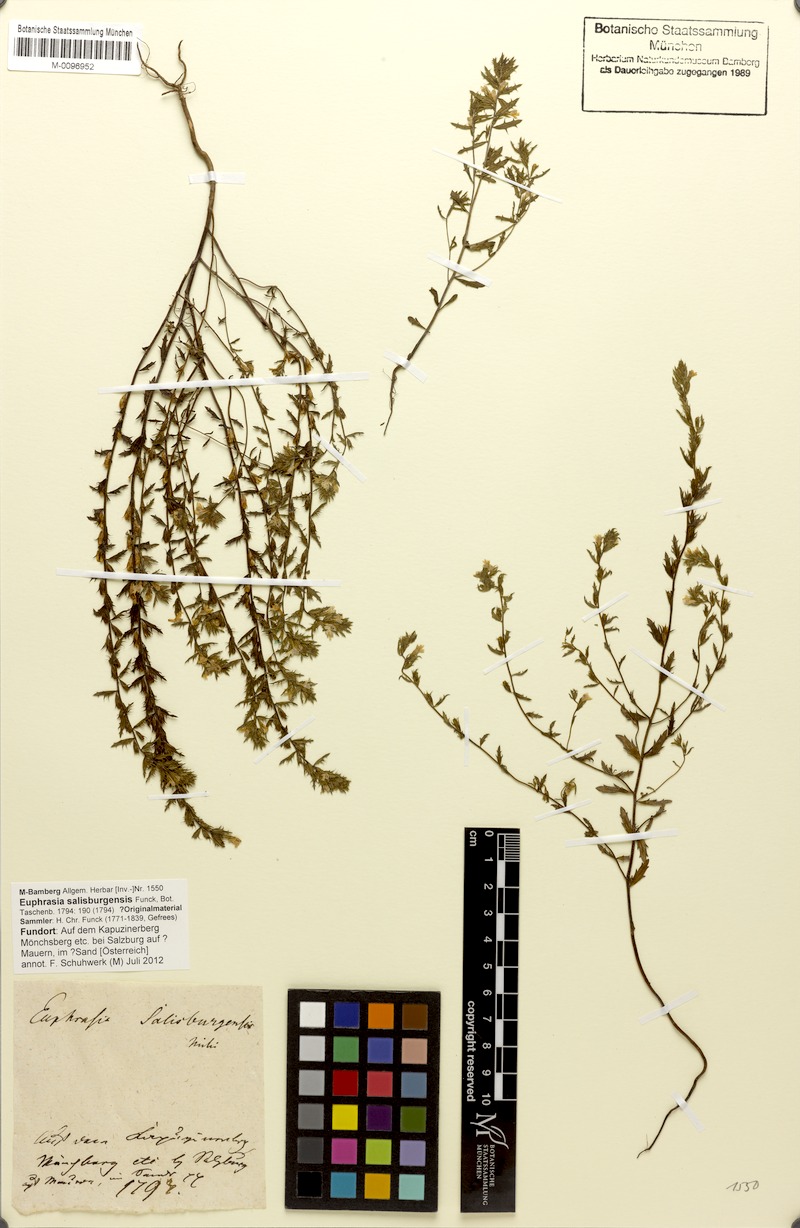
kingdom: Plantae
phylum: Tracheophyta
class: Magnoliopsida
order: Lamiales
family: Orobanchaceae
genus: Euphrasia
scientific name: Euphrasia salisburgensis
